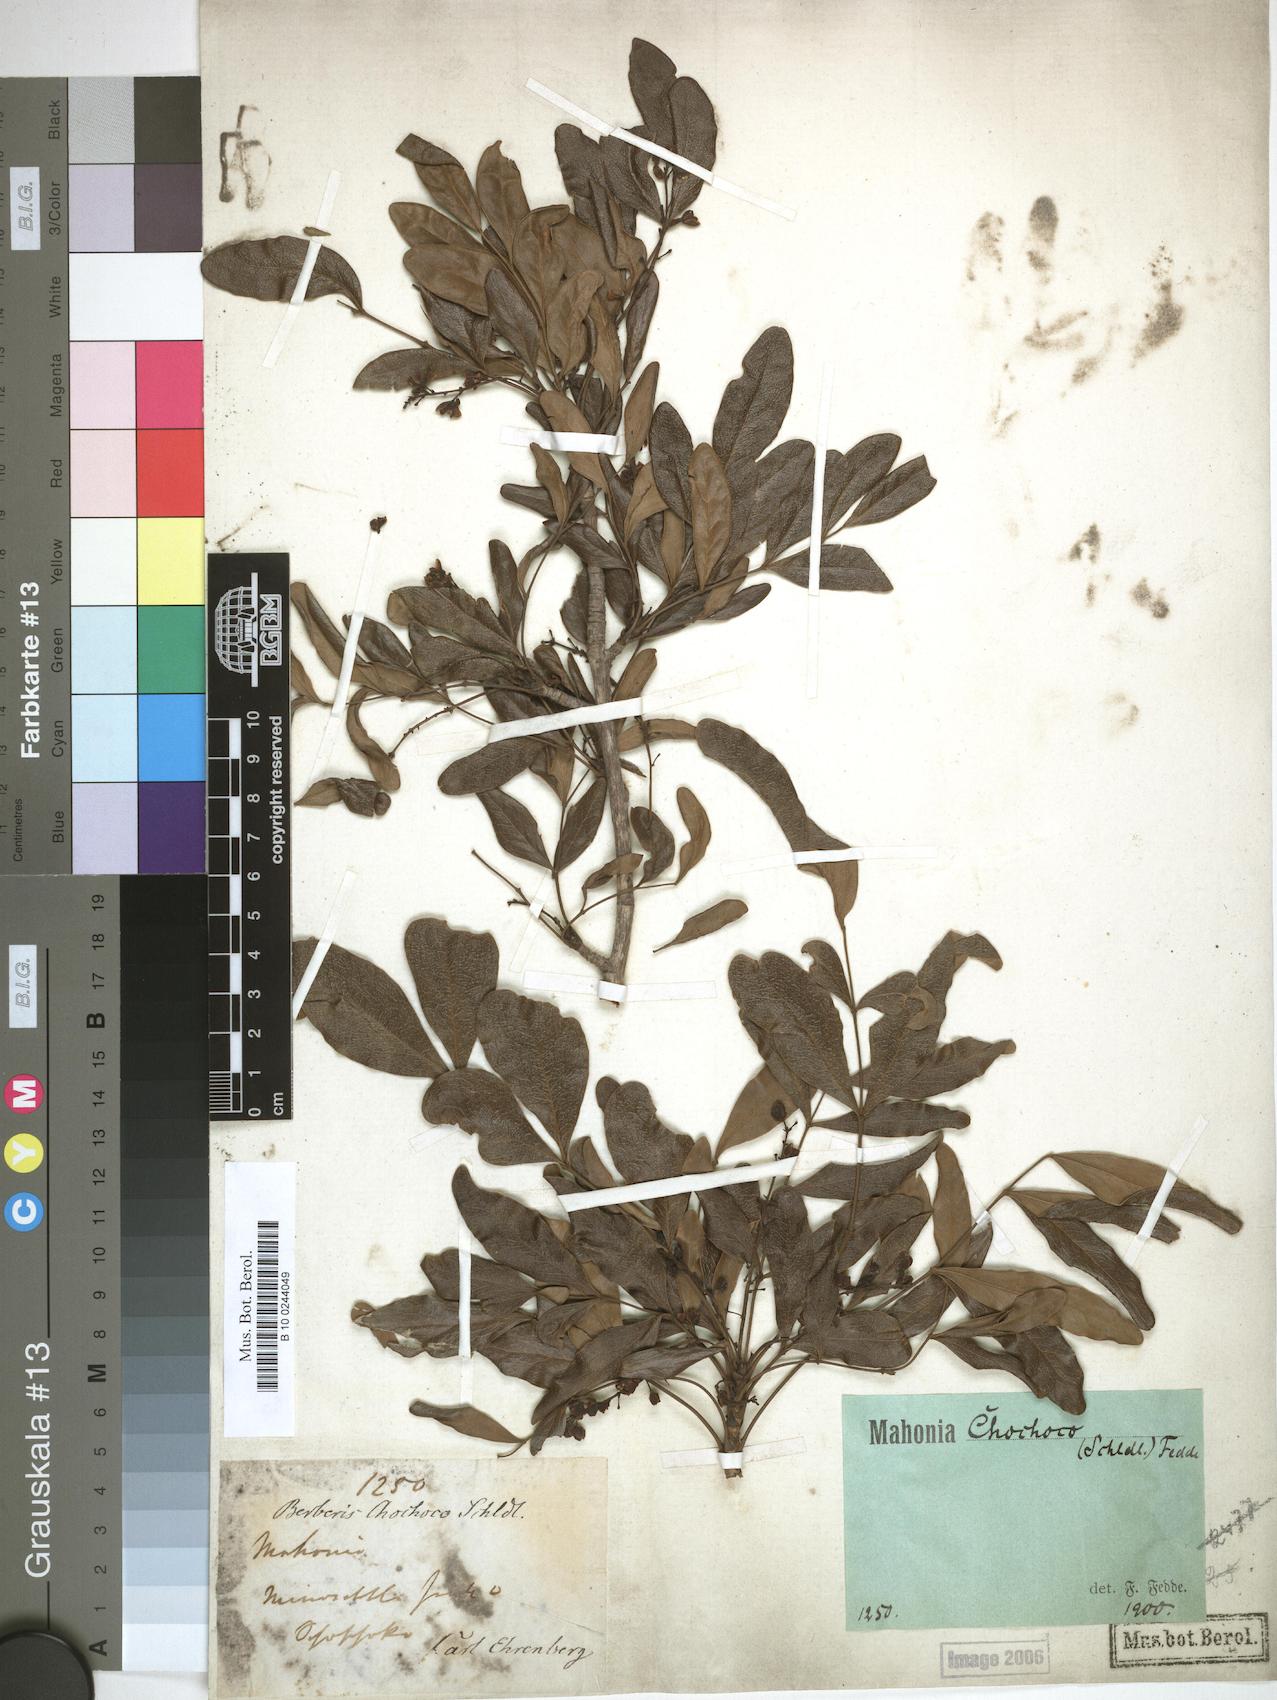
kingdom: Plantae
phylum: Tracheophyta
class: Magnoliopsida
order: Ranunculales
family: Berberidaceae
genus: Mahonia
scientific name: Mahonia chochoco
